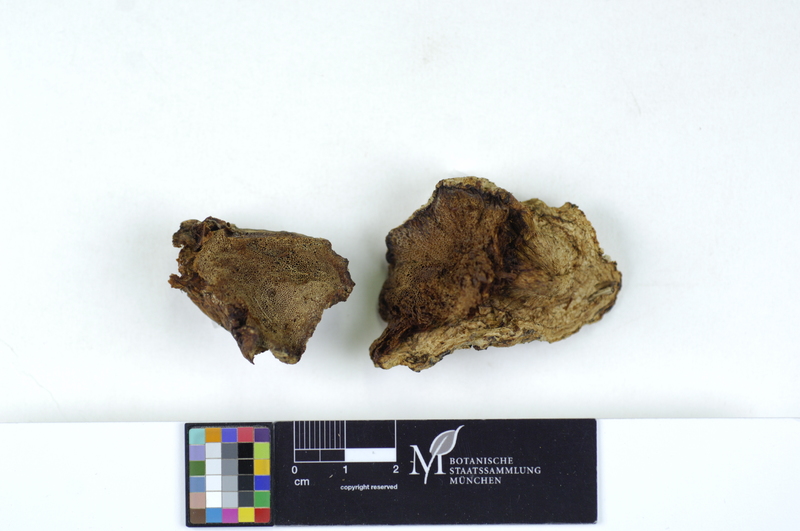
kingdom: Plantae
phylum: Tracheophyta
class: Magnoliopsida
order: Rosales
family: Rosaceae
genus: Malus
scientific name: Malus
